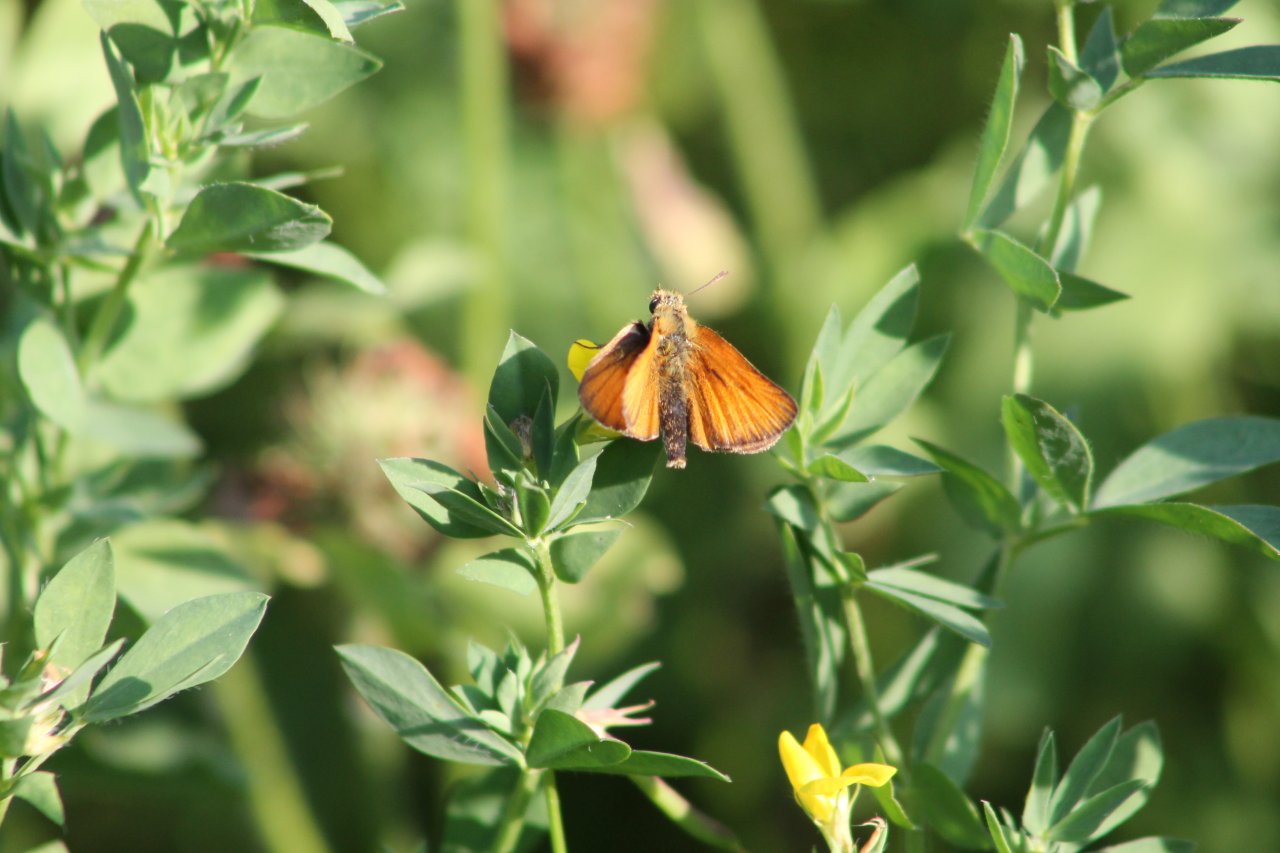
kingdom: Animalia
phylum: Arthropoda
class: Insecta
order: Lepidoptera
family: Hesperiidae
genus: Thymelicus
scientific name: Thymelicus lineola
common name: European Skipper
